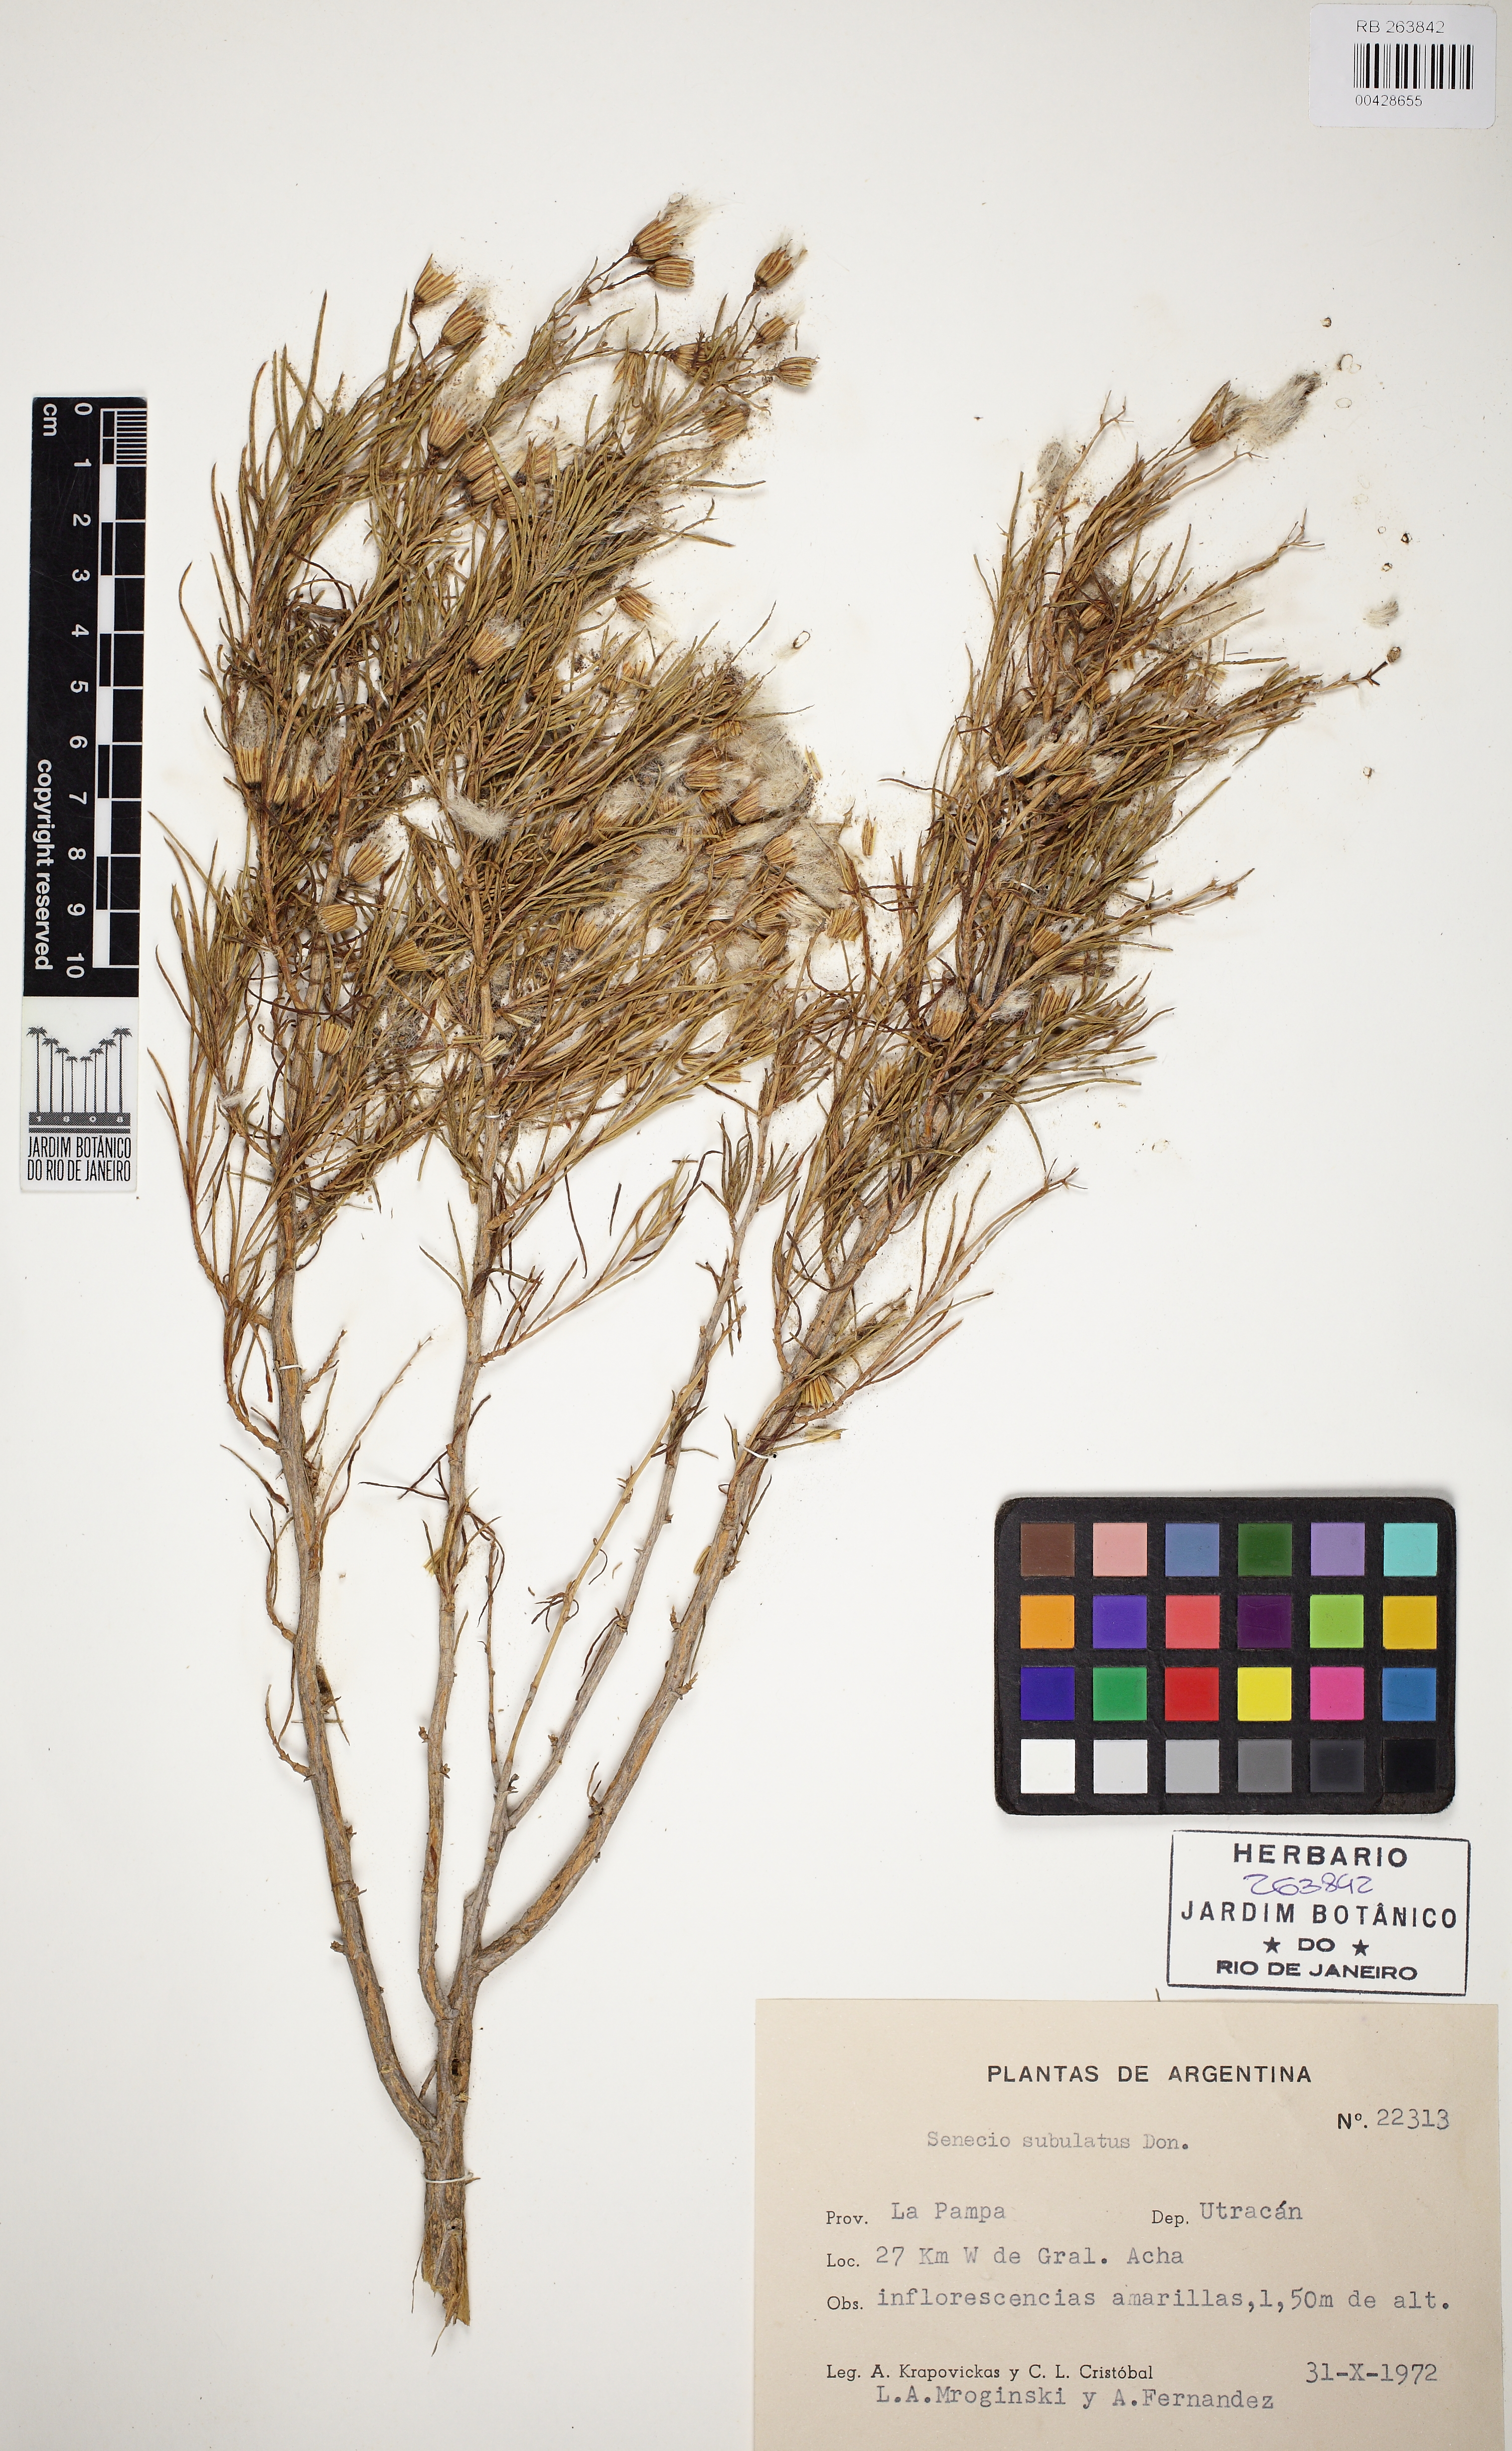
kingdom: Plantae
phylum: Tracheophyta
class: Magnoliopsida
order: Asterales
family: Asteraceae
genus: Senecio
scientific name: Senecio subulatus
